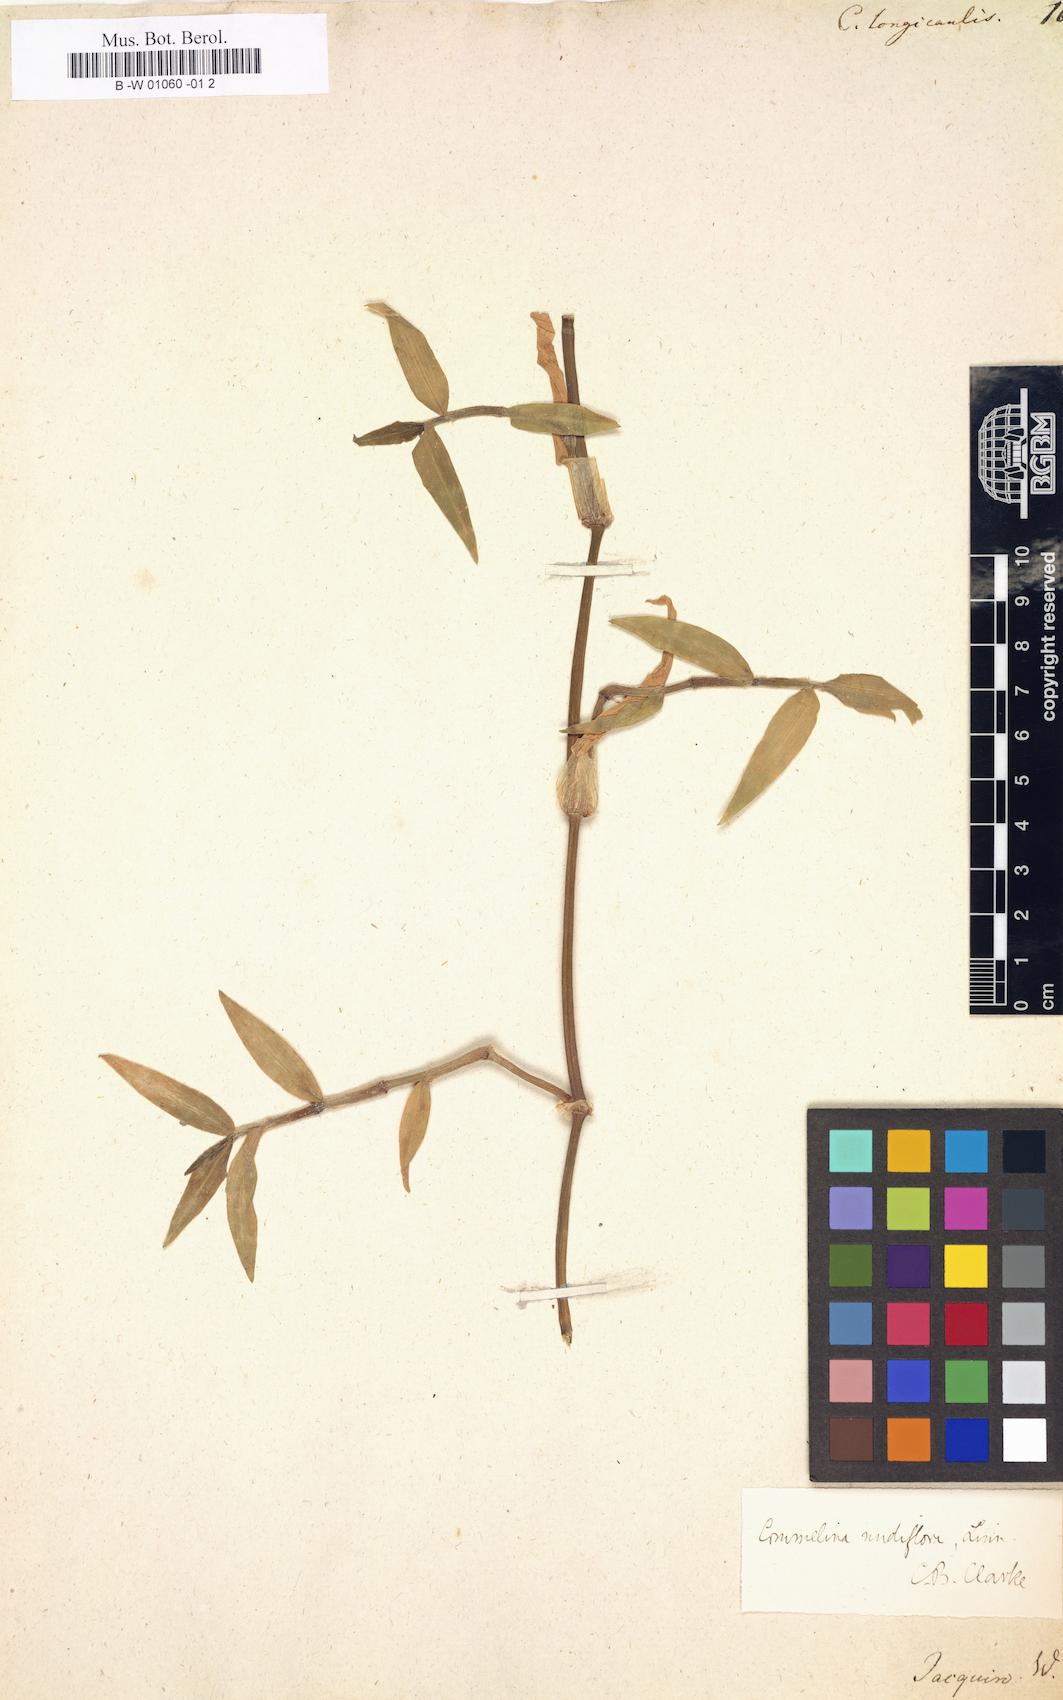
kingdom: Plantae
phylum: Tracheophyta
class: Liliopsida
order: Commelinales
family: Commelinaceae
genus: Commelina
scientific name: Commelina longicaulis
